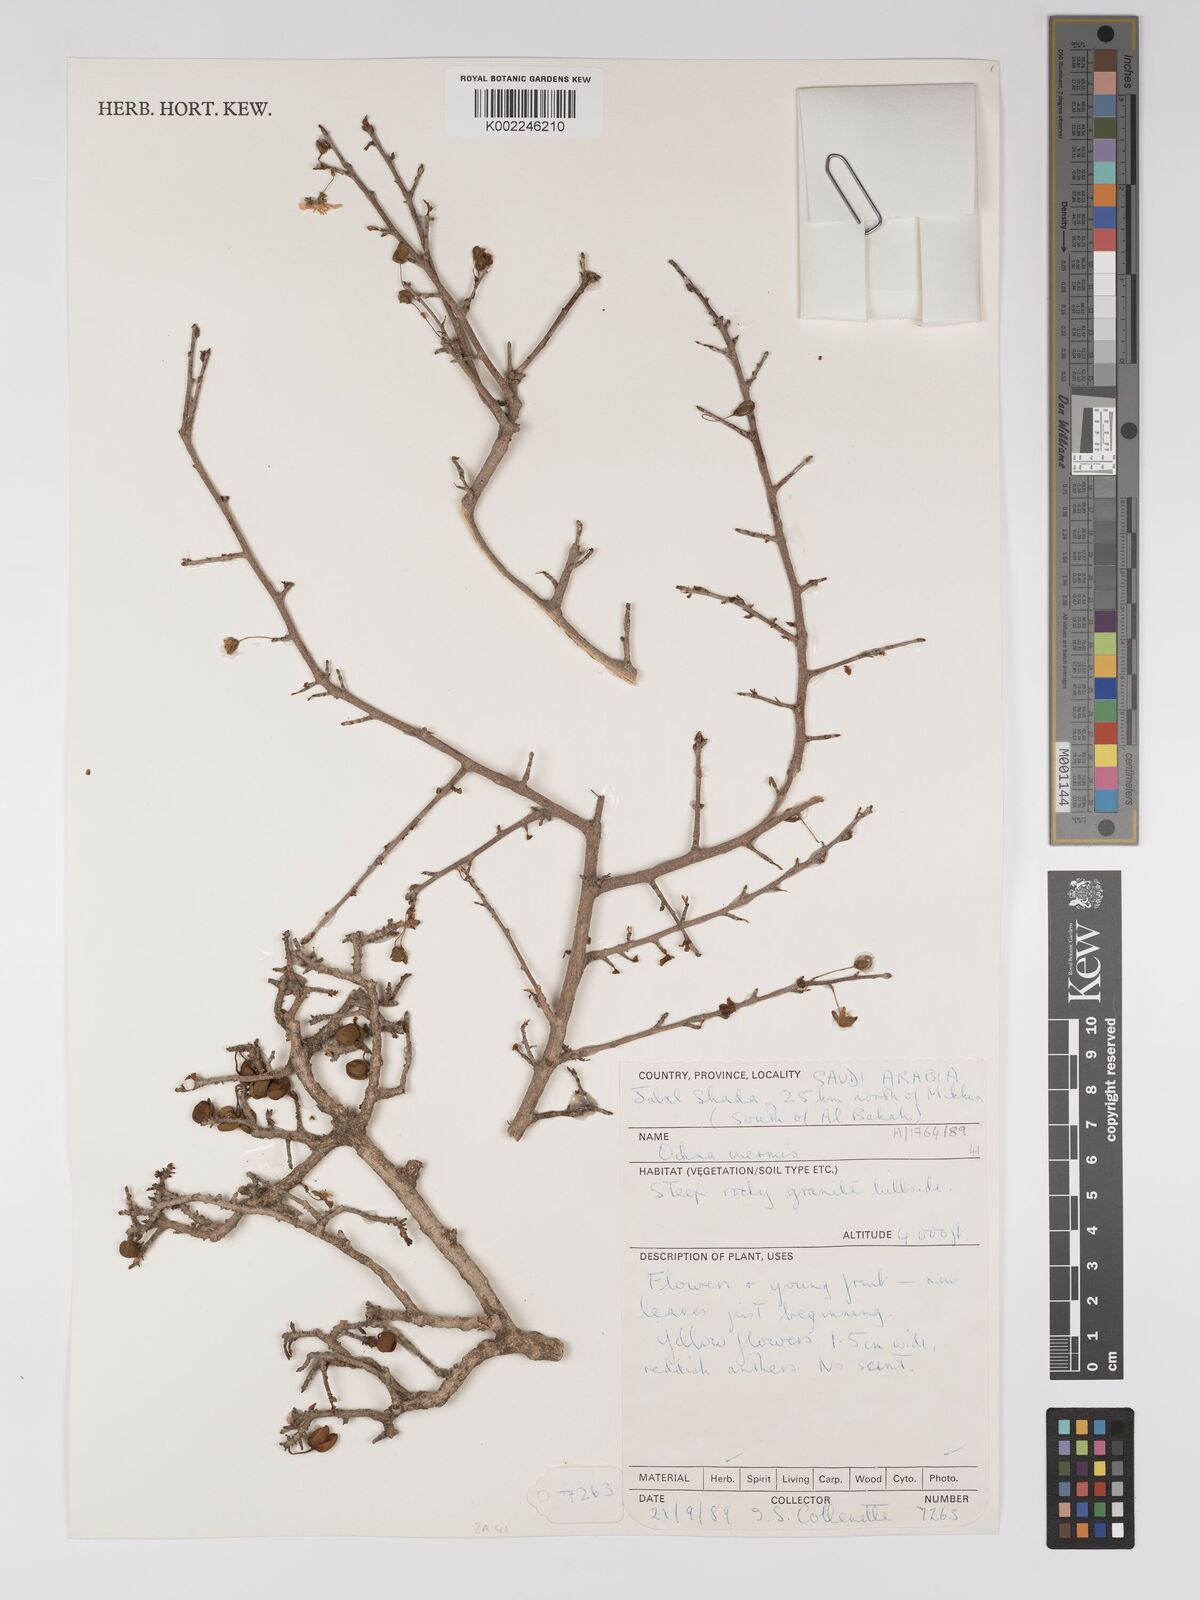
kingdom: Plantae
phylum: Tracheophyta
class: Magnoliopsida
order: Malpighiales
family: Ochnaceae
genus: Ochna
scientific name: Ochna inermis
